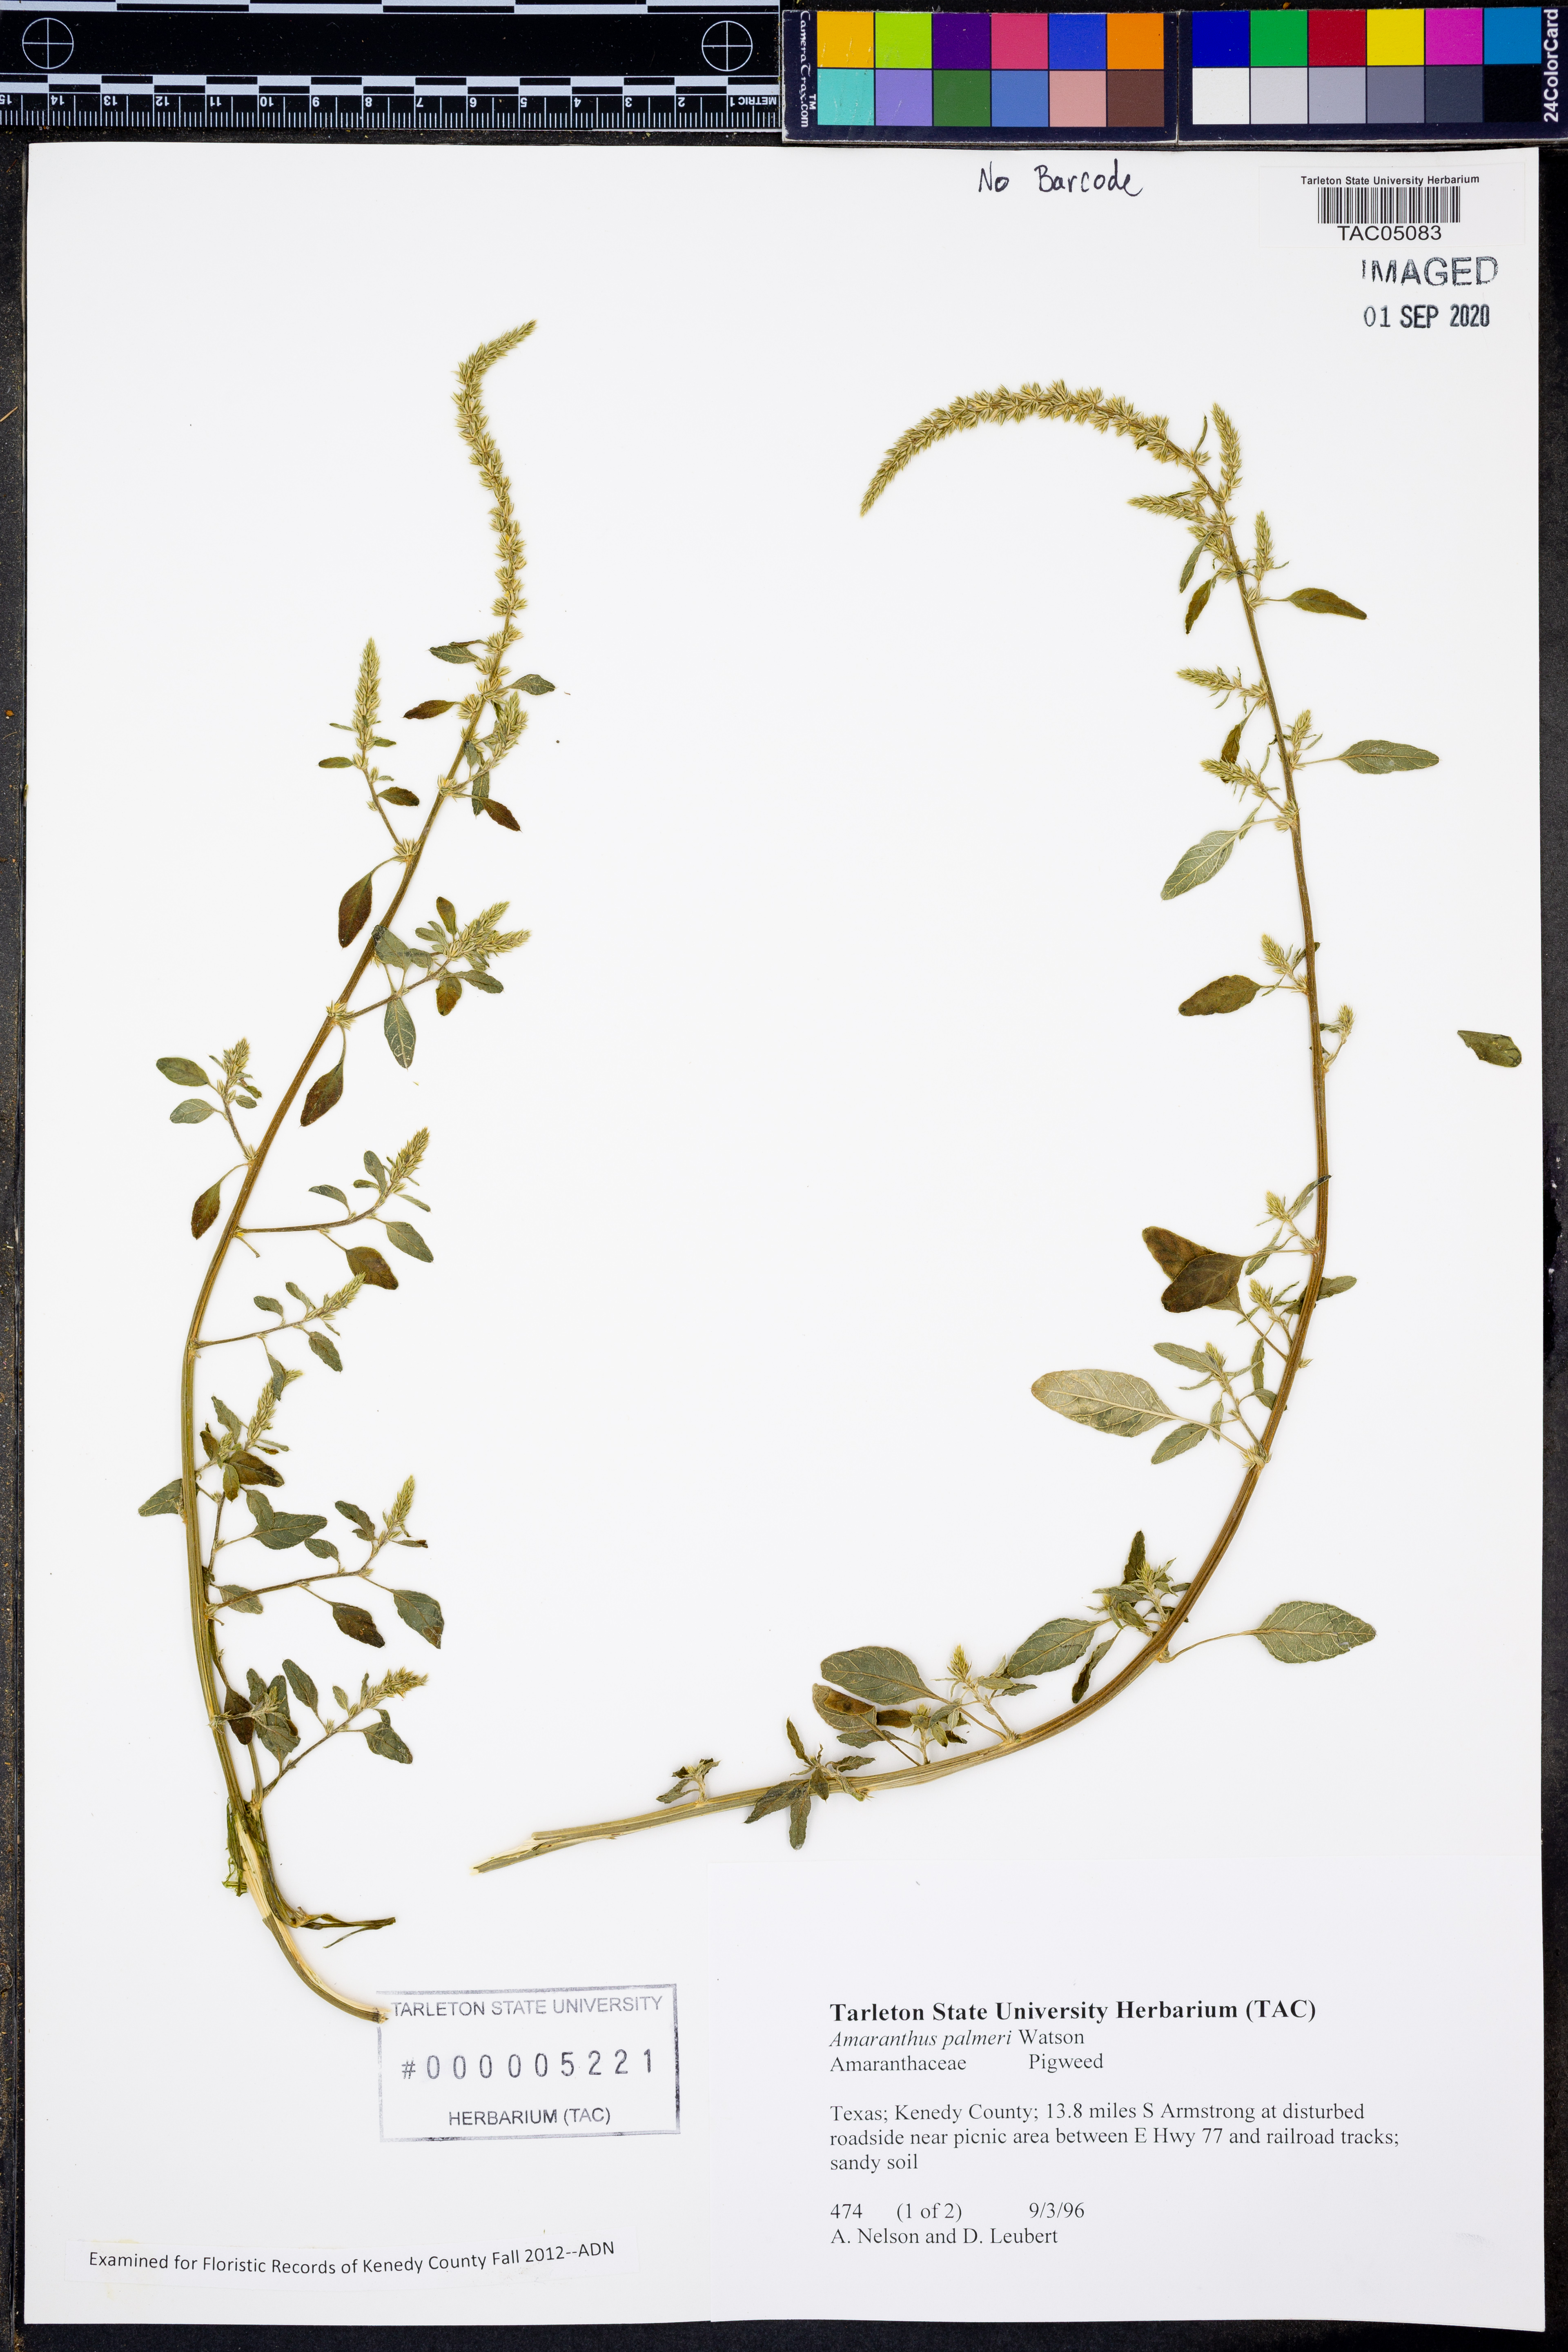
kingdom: Plantae
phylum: Tracheophyta
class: Magnoliopsida
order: Caryophyllales
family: Amaranthaceae
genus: Amaranthus
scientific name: Amaranthus palmeri
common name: Dioecious amaranth
